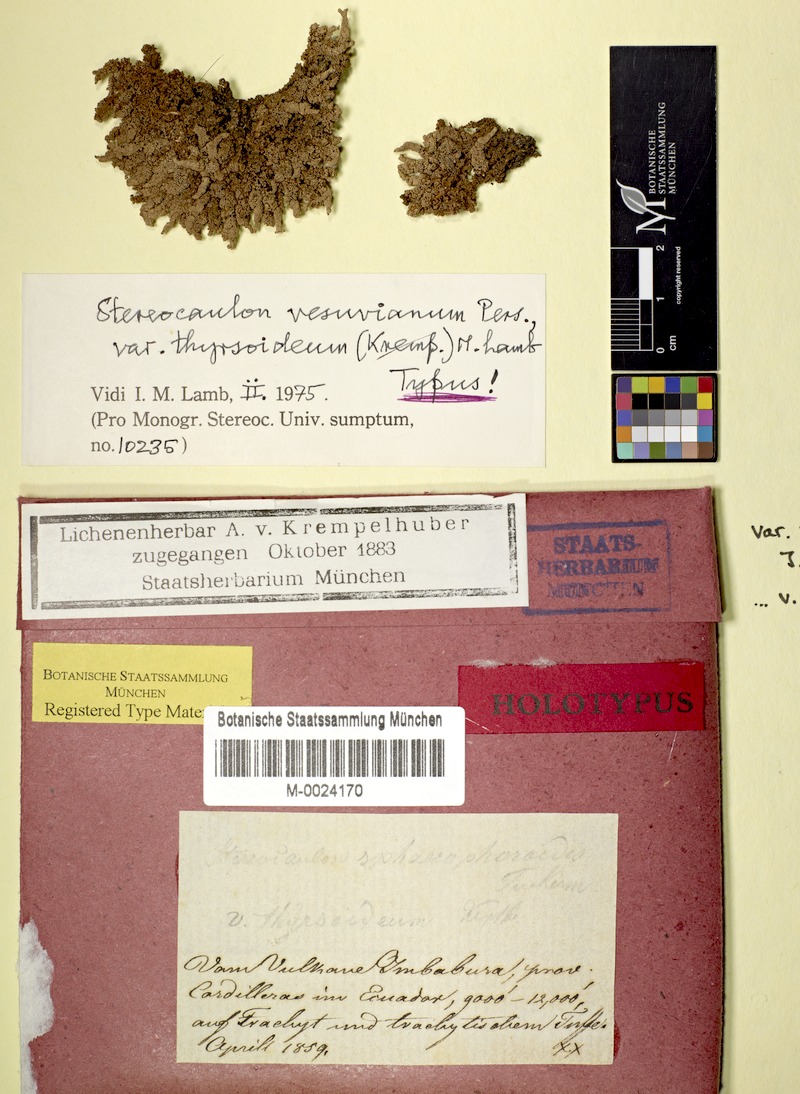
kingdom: Fungi
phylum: Ascomycota
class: Lecanoromycetes
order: Lecanorales
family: Stereocaulaceae
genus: Stereocaulon
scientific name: Stereocaulon vesuvianum
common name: Variegated foam lichen
